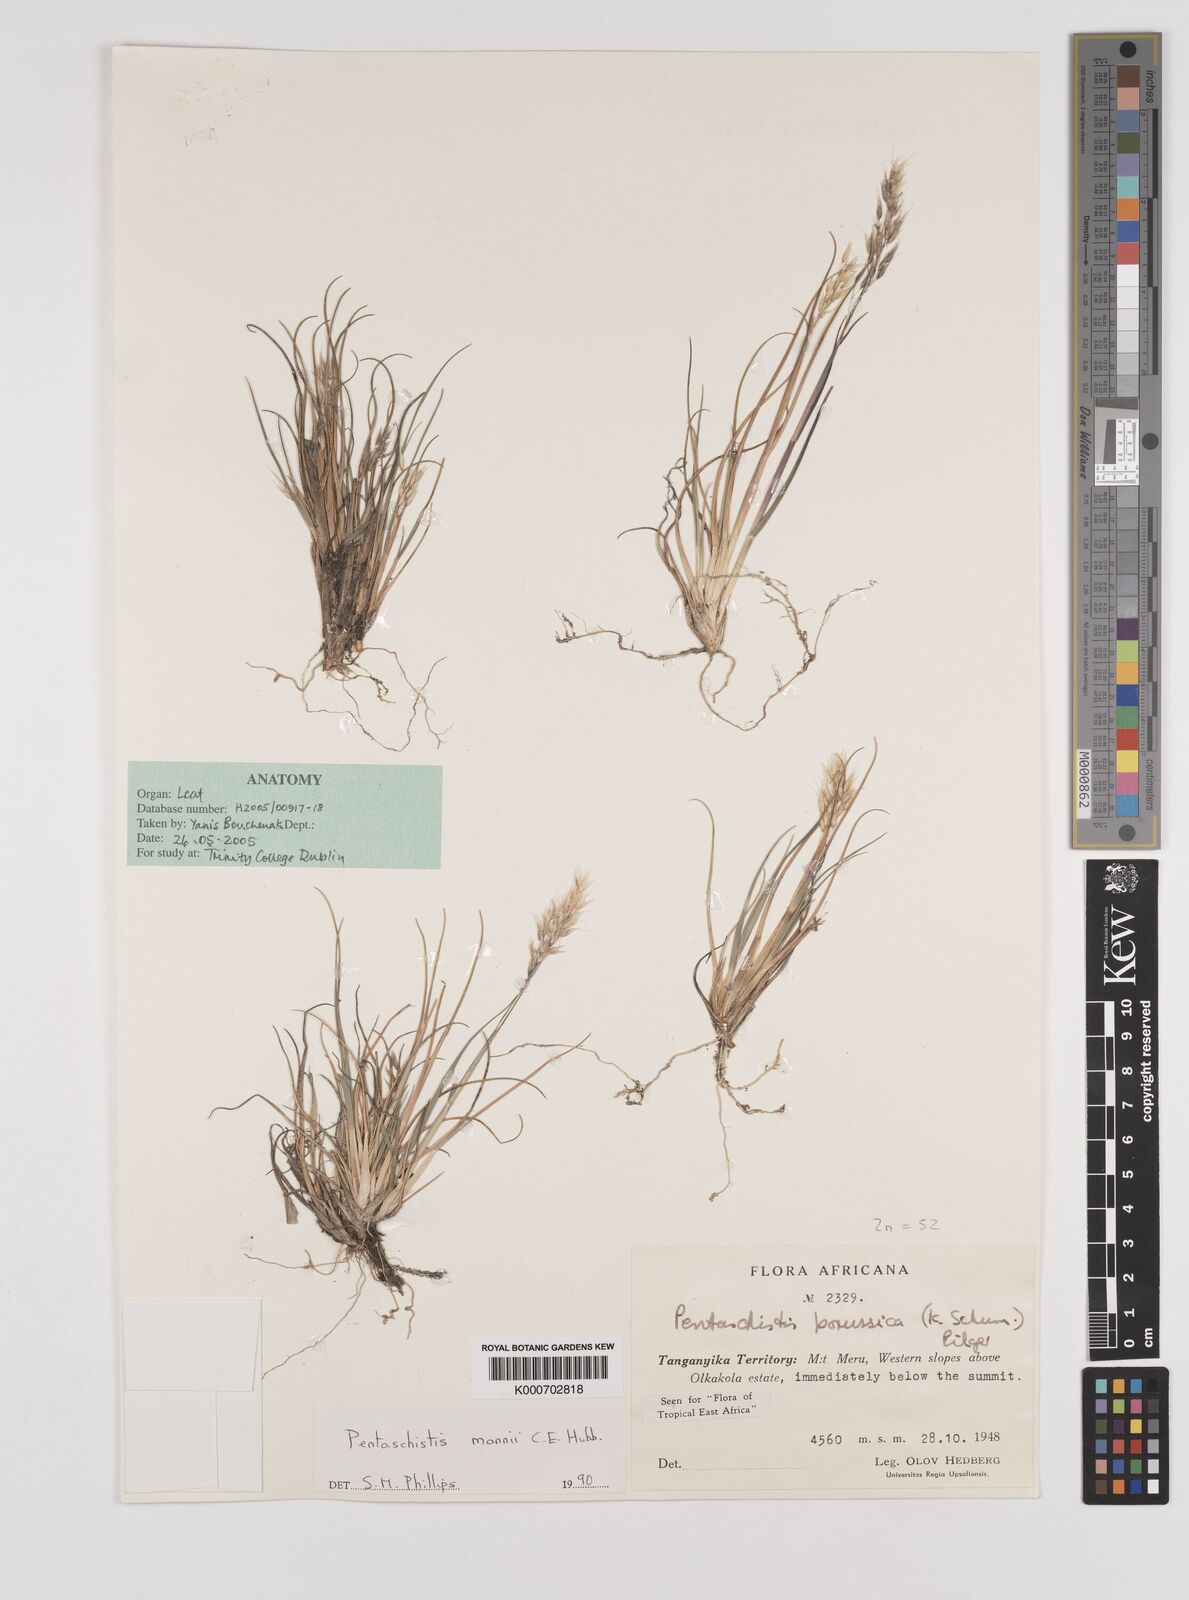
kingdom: Plantae
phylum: Tracheophyta
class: Liliopsida
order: Poales
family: Poaceae
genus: Pentameris
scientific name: Pentameris pictigluma
